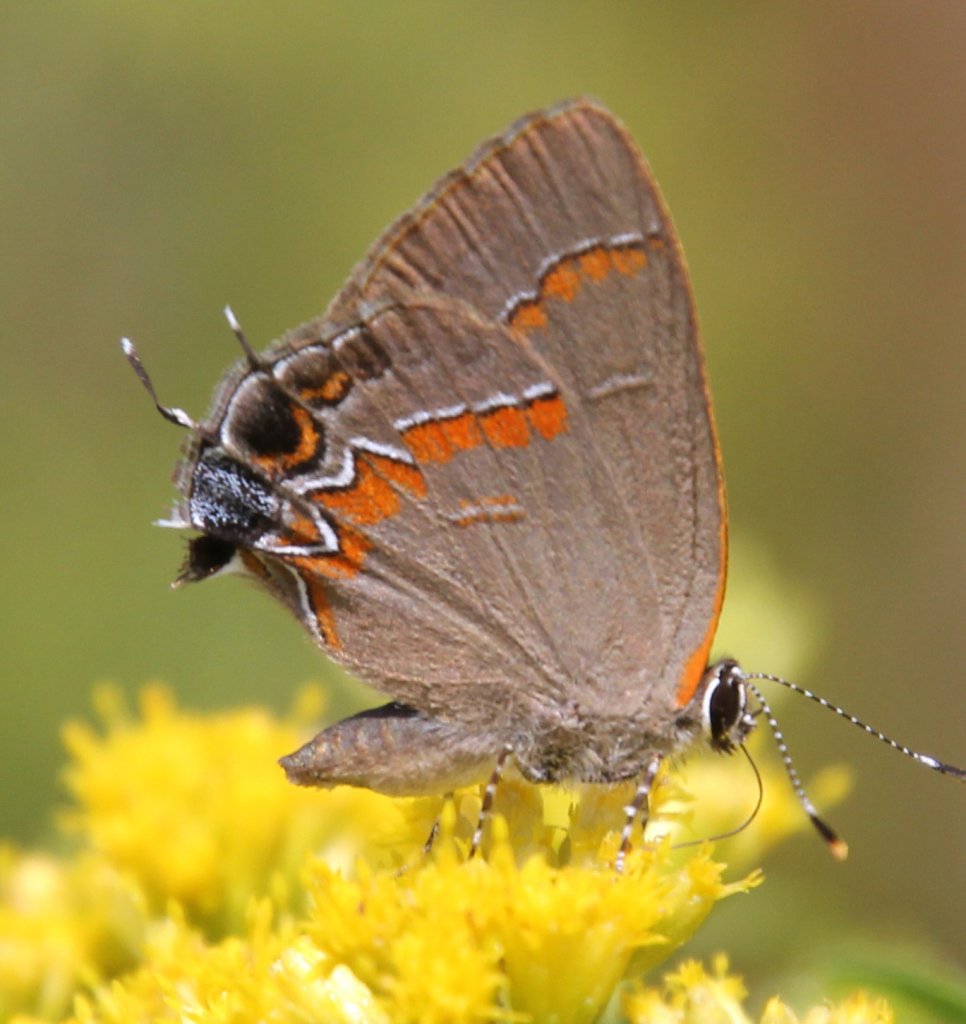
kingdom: Animalia
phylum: Arthropoda
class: Insecta
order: Lepidoptera
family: Lycaenidae
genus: Calycopis
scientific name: Calycopis cecrops
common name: Red-banded Hairstreak
